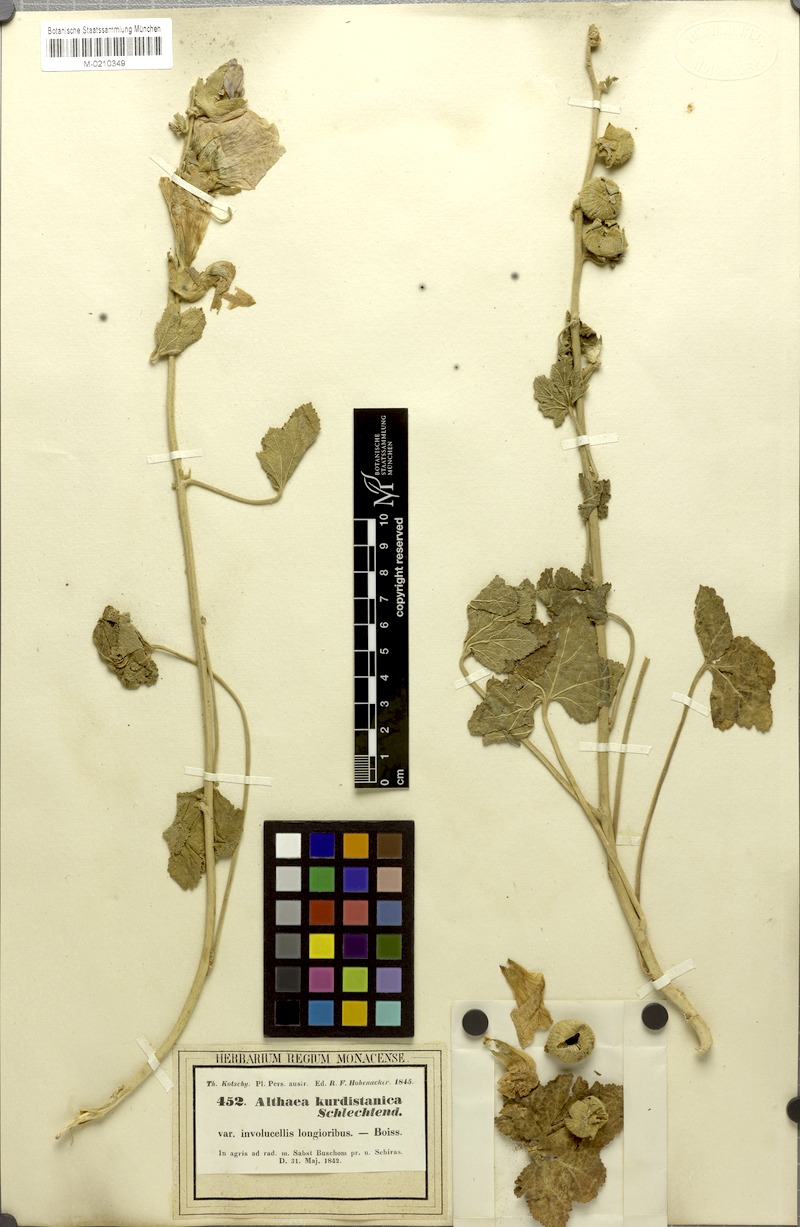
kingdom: Plantae
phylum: Tracheophyta
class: Magnoliopsida
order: Malvales
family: Malvaceae
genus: Alcea
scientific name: Alcea kurdica
